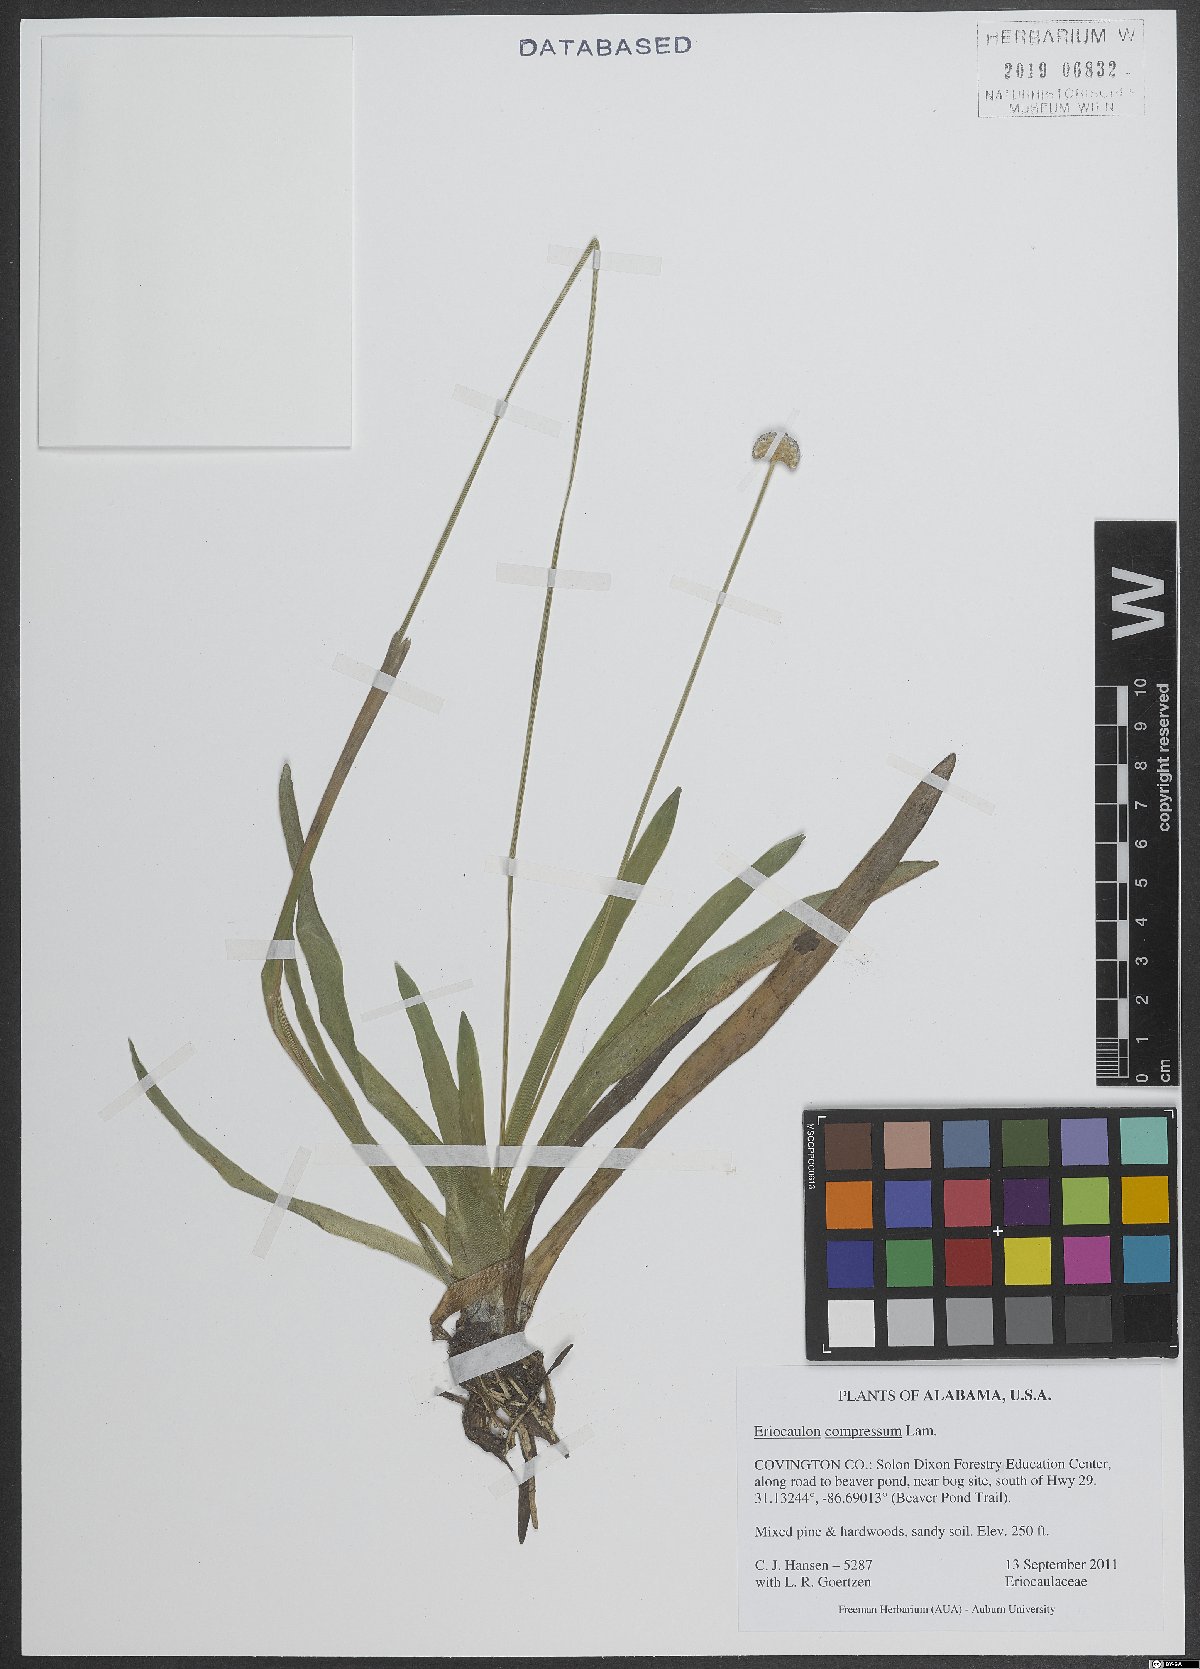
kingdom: Plantae
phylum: Tracheophyta
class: Liliopsida
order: Poales
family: Eriocaulaceae
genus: Eriocaulon
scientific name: Eriocaulon compressum
